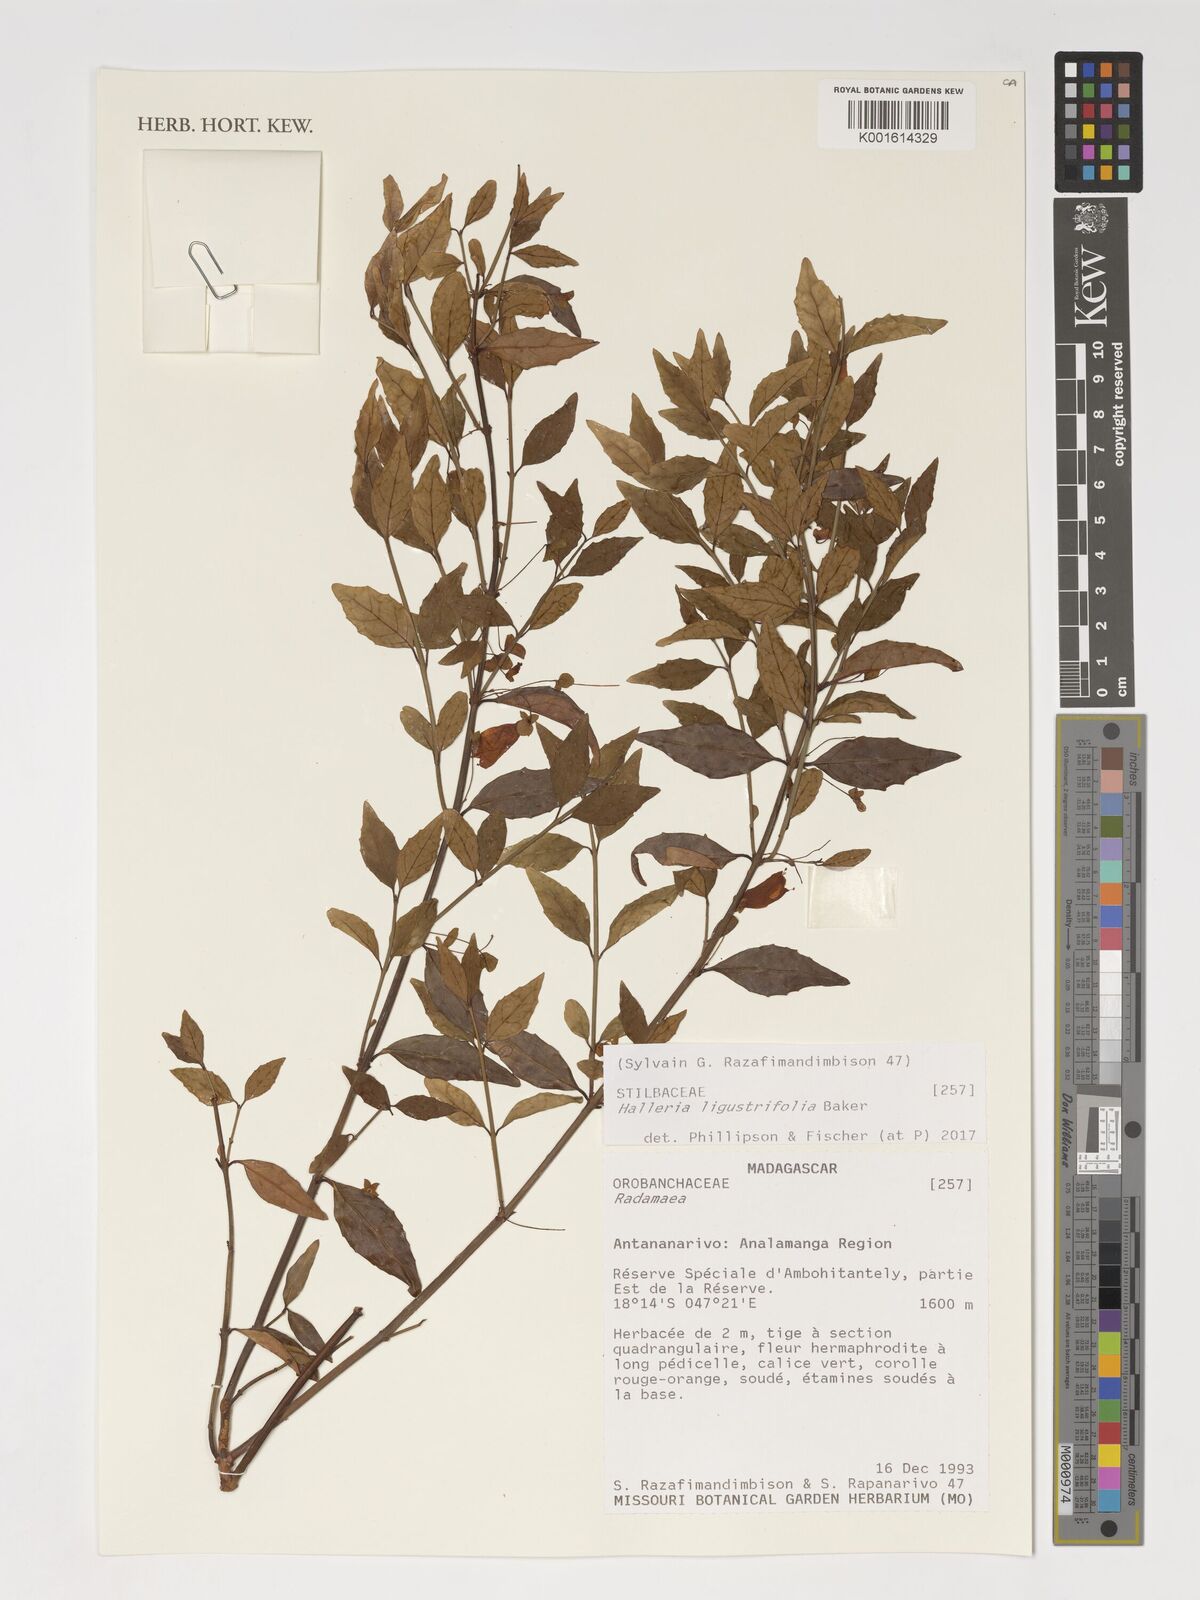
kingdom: Plantae
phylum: Tracheophyta
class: Magnoliopsida
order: Lamiales
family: Stilbaceae
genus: Halleria
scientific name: Halleria ligustrifolia
